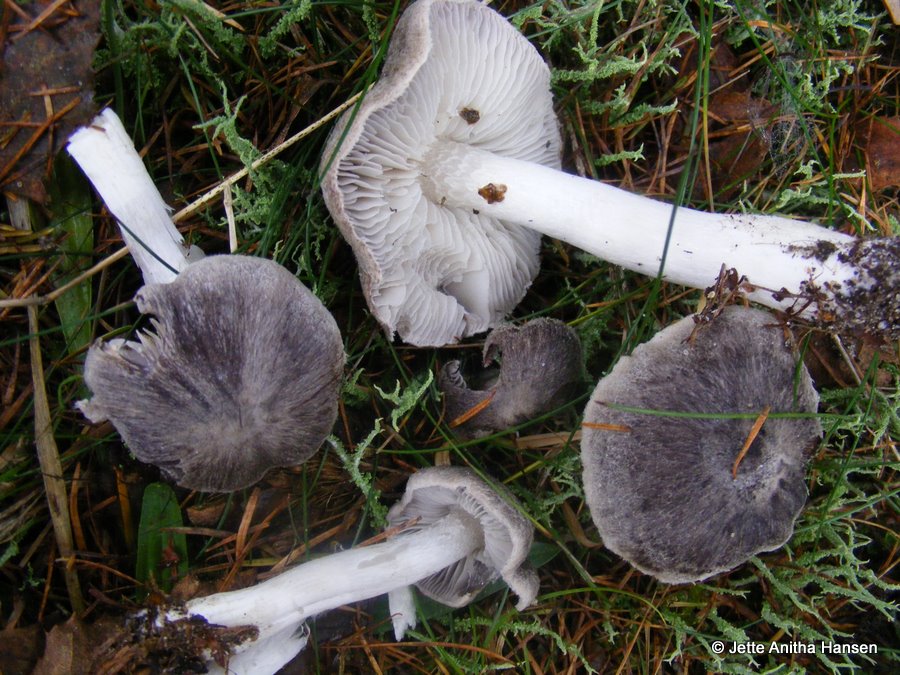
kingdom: Fungi
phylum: Basidiomycota
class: Agaricomycetes
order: Agaricales
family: Tricholomataceae
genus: Tricholoma
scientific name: Tricholoma terreum
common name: jordfarvet ridderhat
